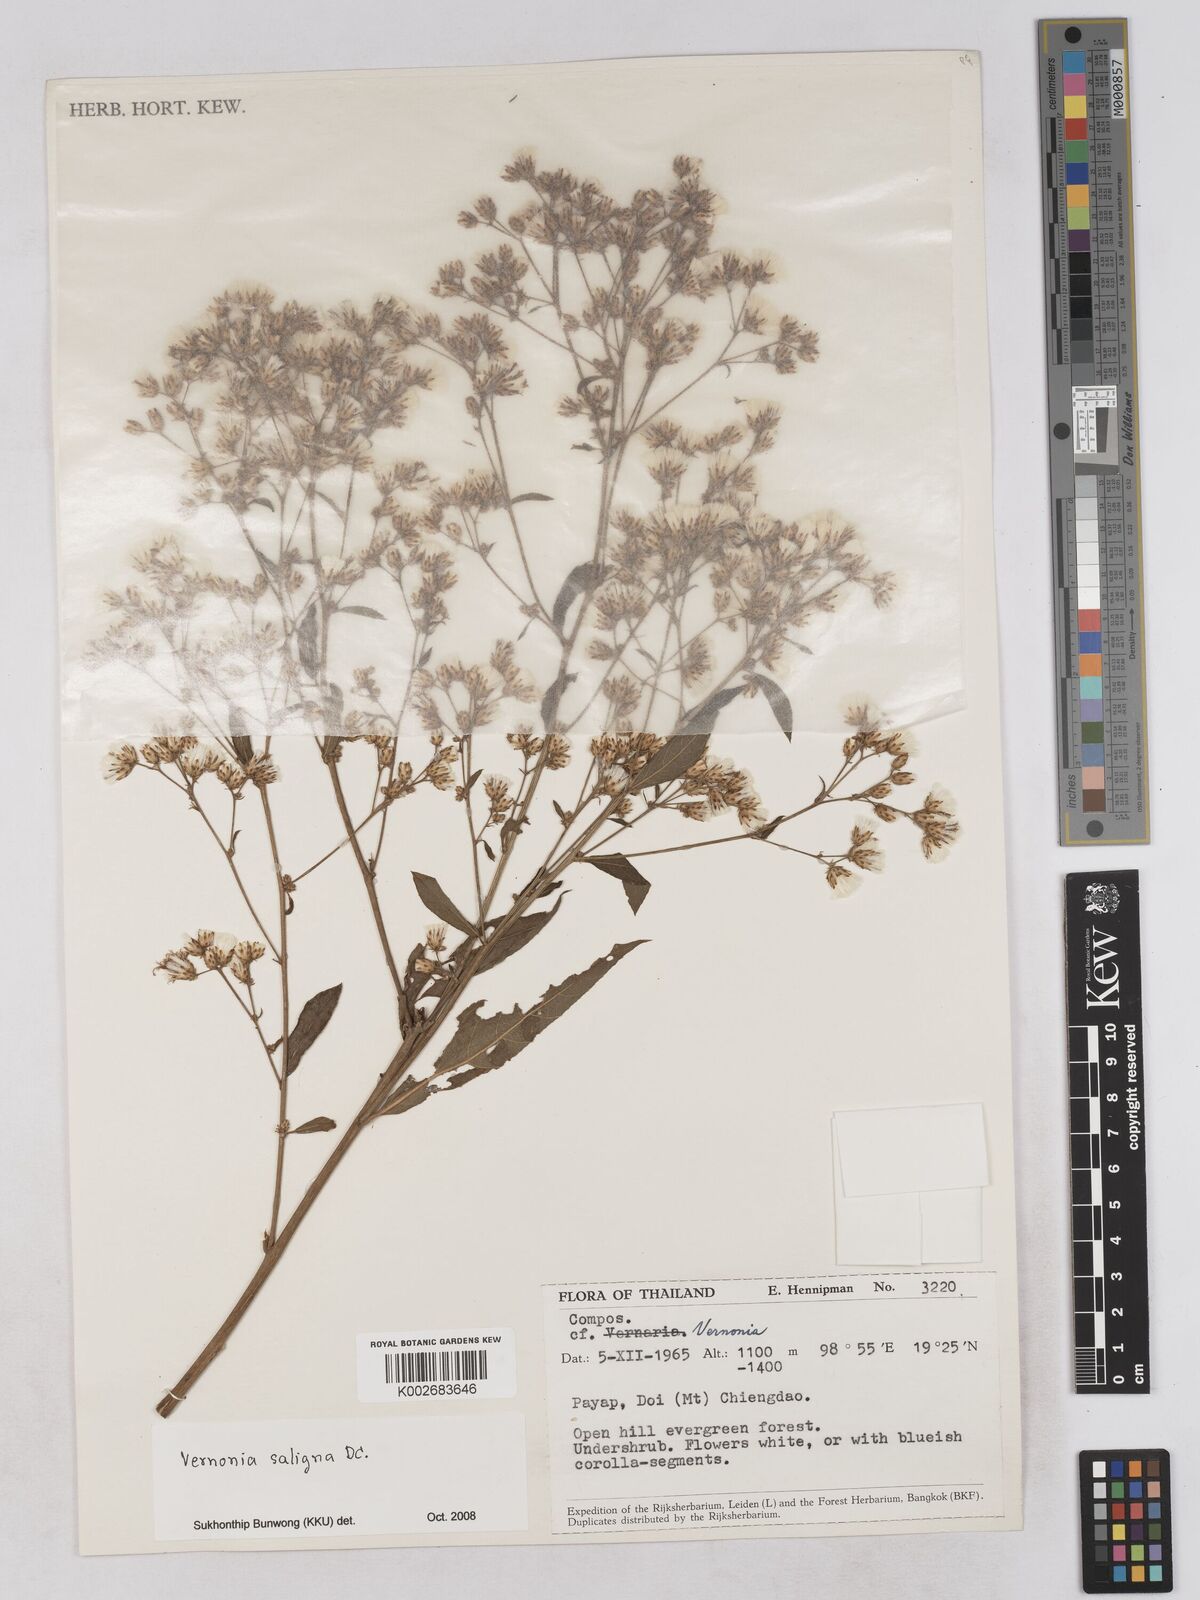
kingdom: Plantae
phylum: Tracheophyta
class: Magnoliopsida
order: Asterales
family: Asteraceae
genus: Acilepis
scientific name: Acilepis saligna
